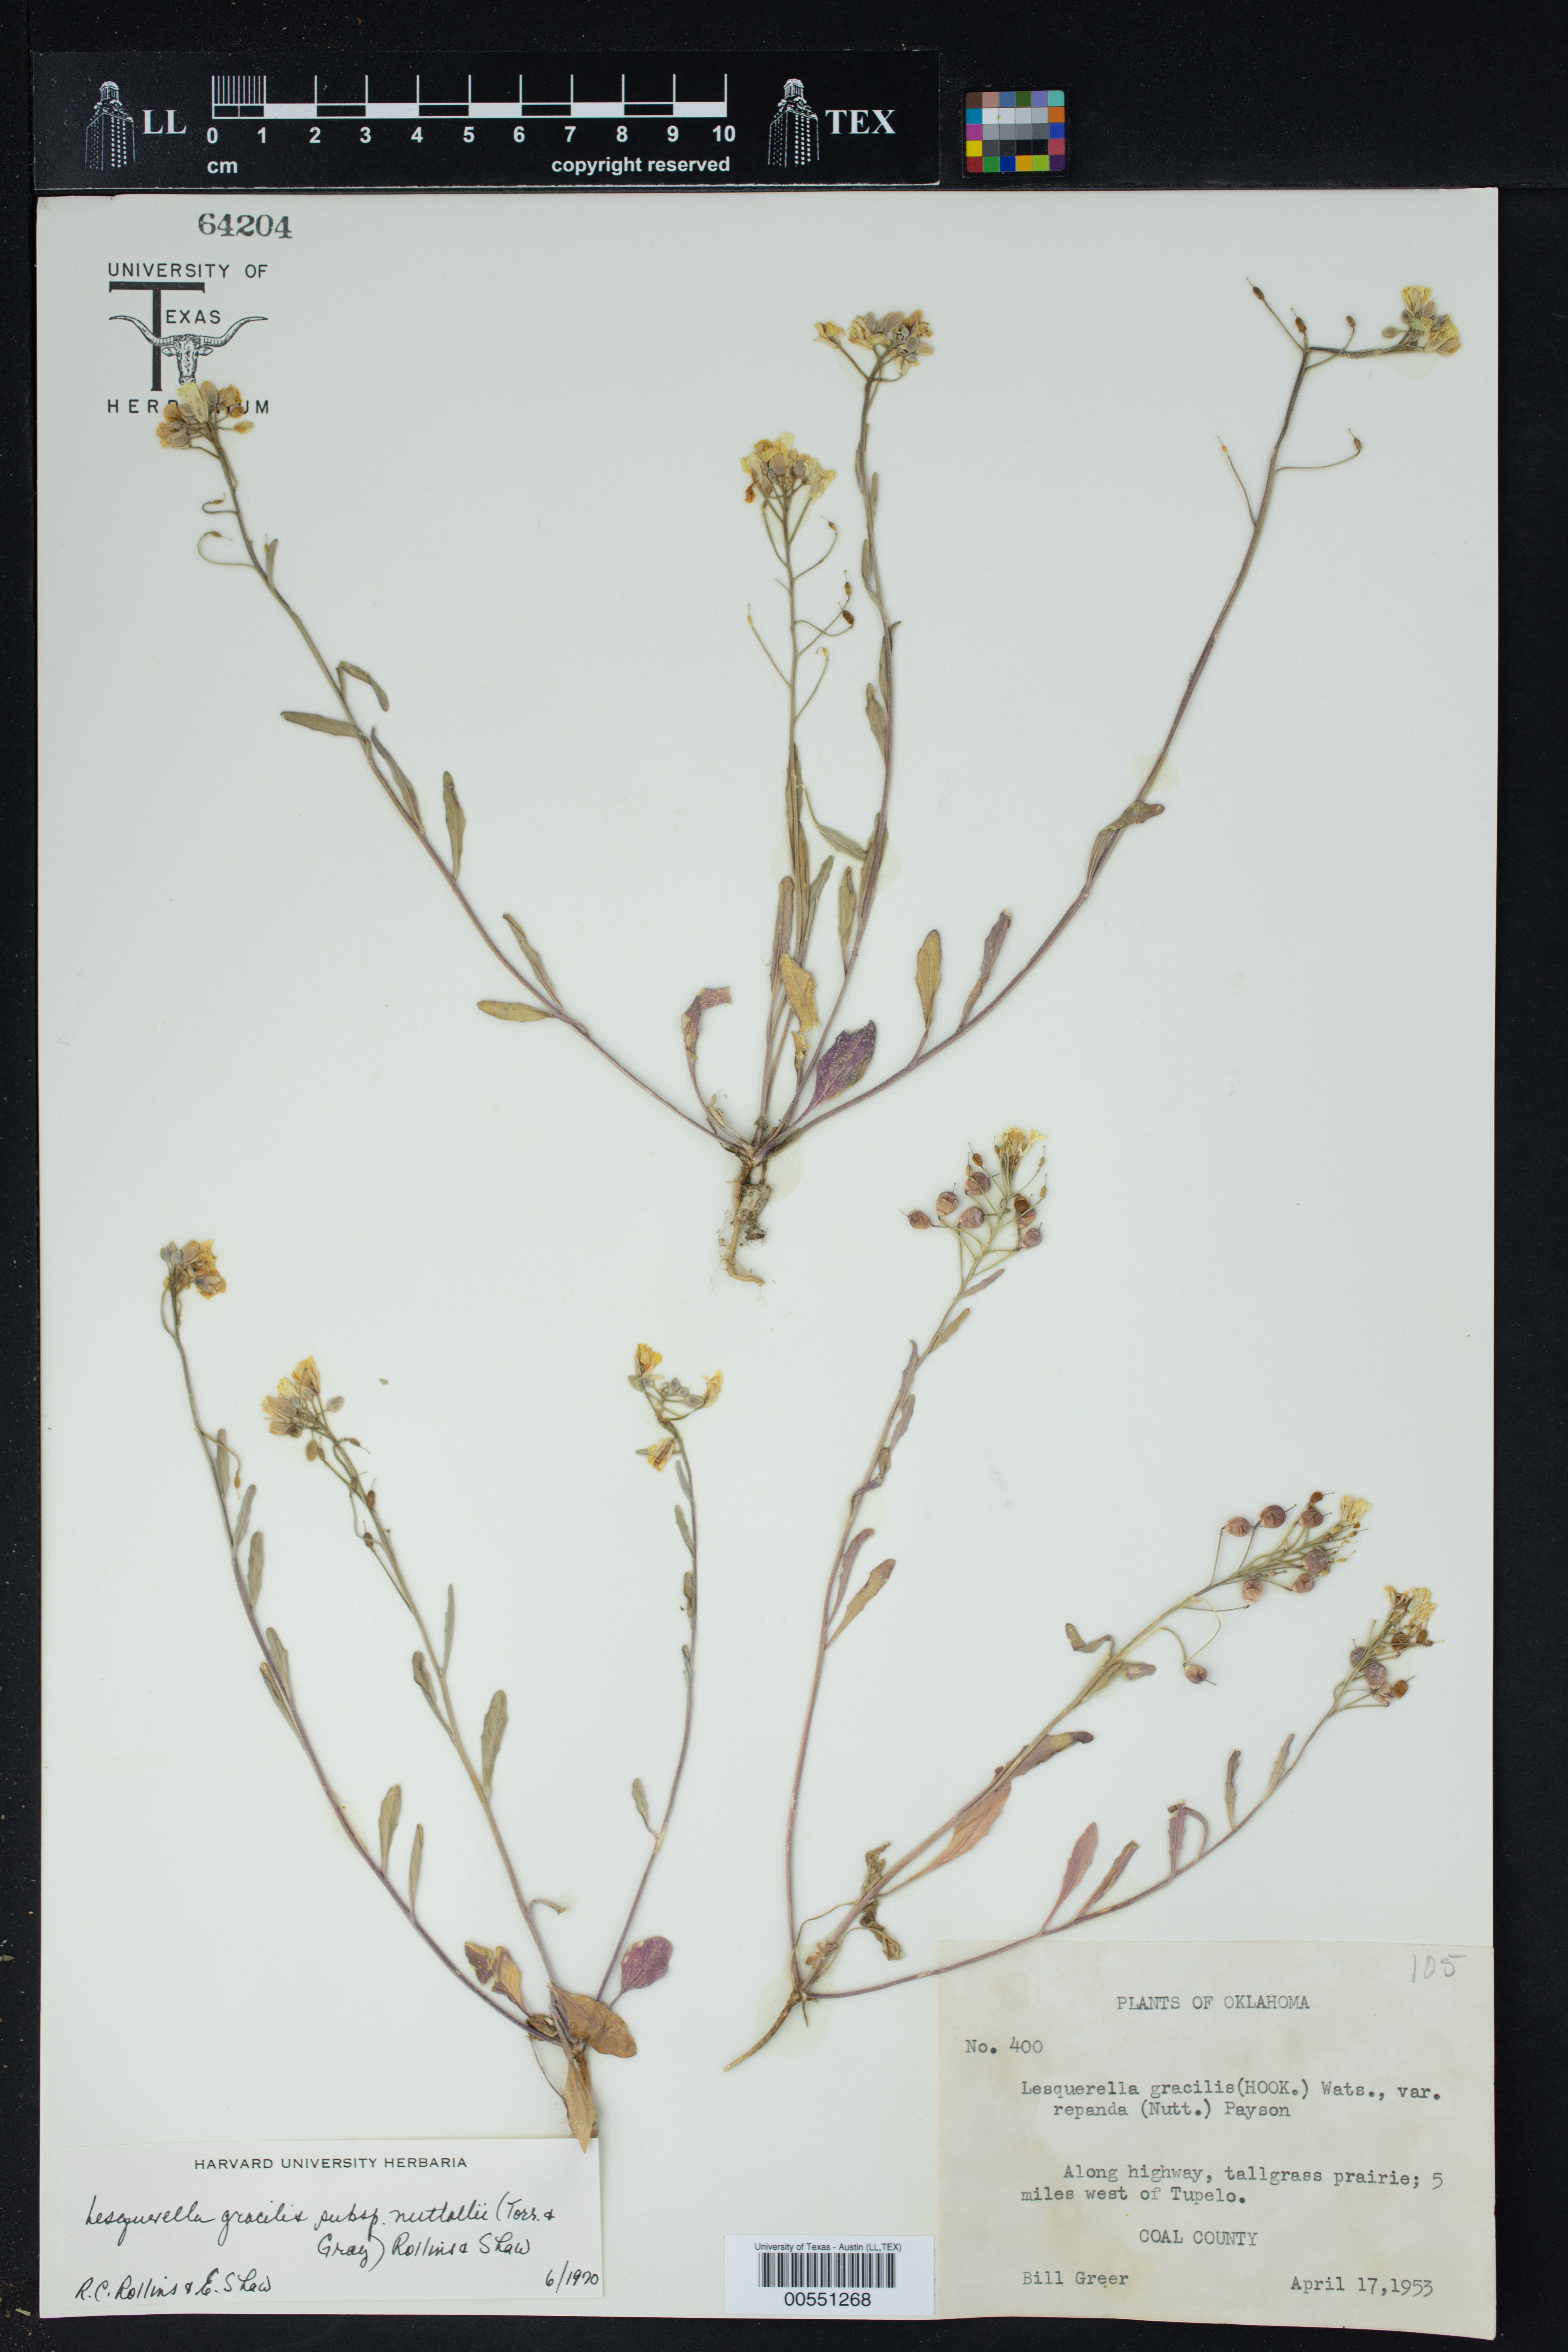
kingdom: Plantae
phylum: Tracheophyta
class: Magnoliopsida
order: Brassicales
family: Brassicaceae
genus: Physaria
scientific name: Physaria gracilis
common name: Spreading bladderpod
